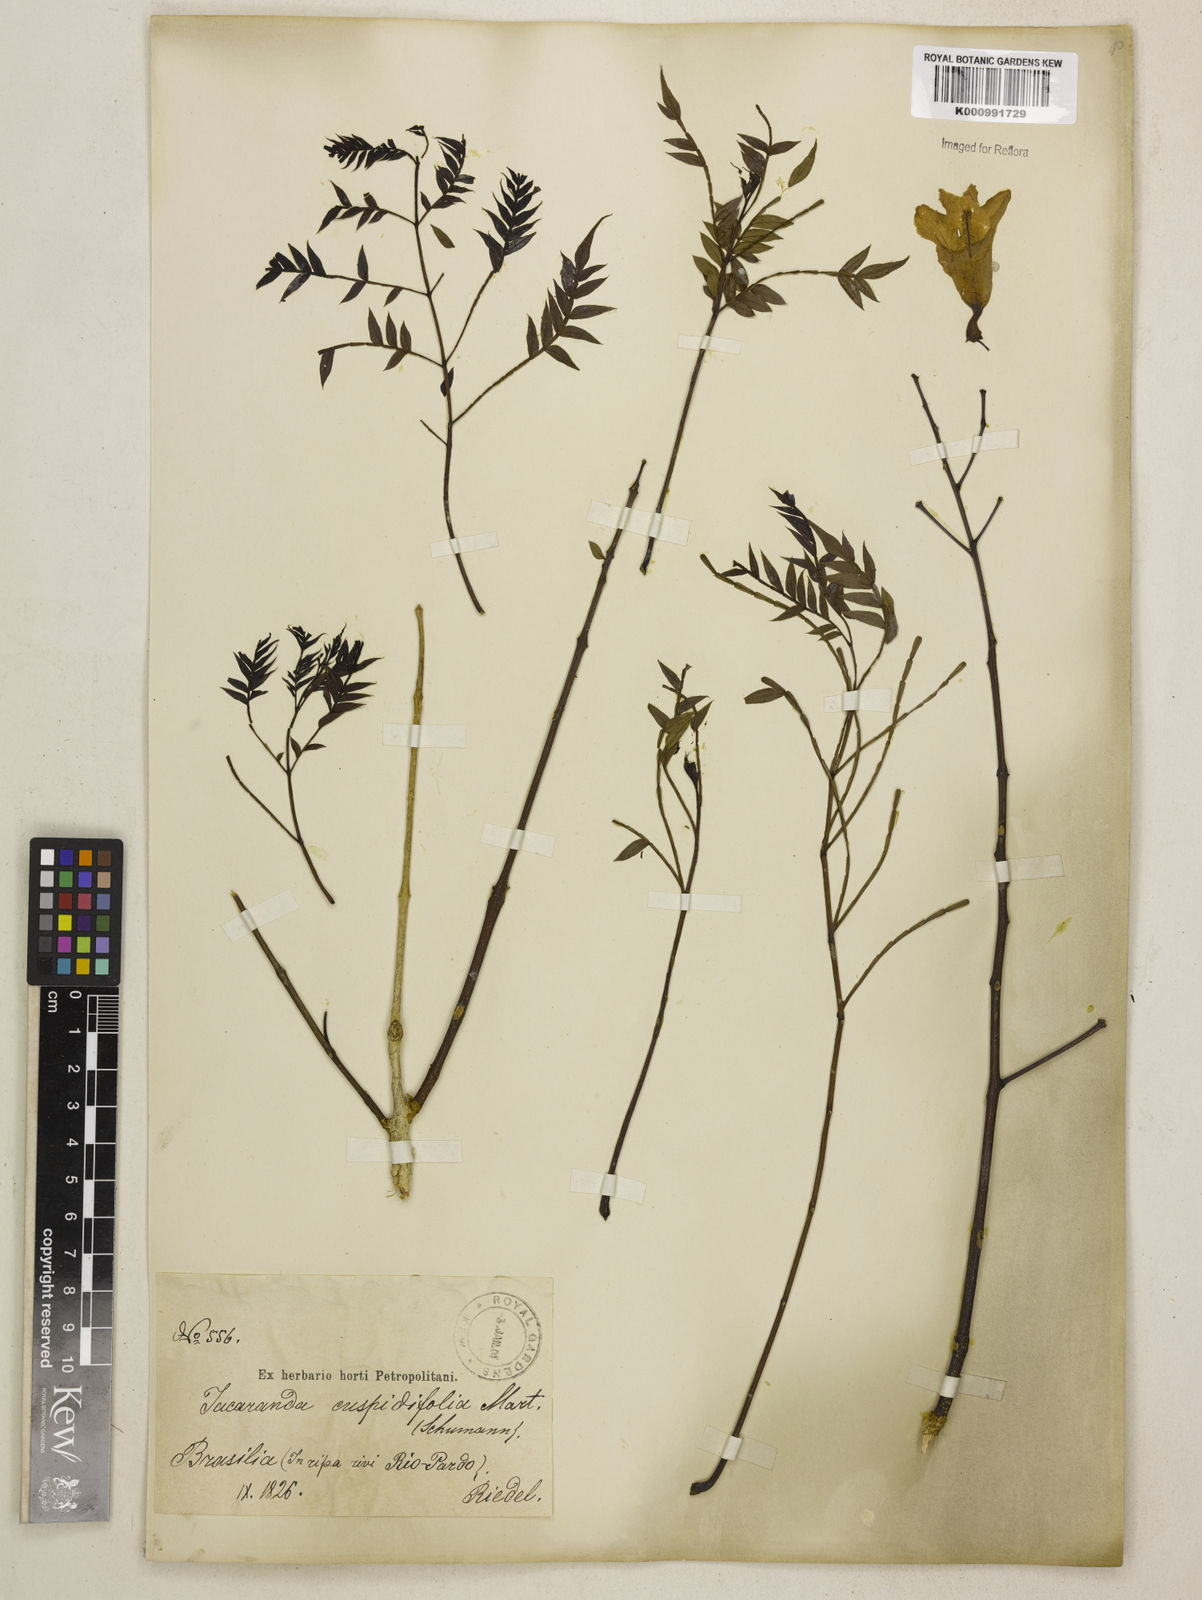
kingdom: Plantae
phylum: Tracheophyta
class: Magnoliopsida
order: Lamiales
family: Bignoniaceae
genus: Jacaranda
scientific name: Jacaranda cuspidifolia
